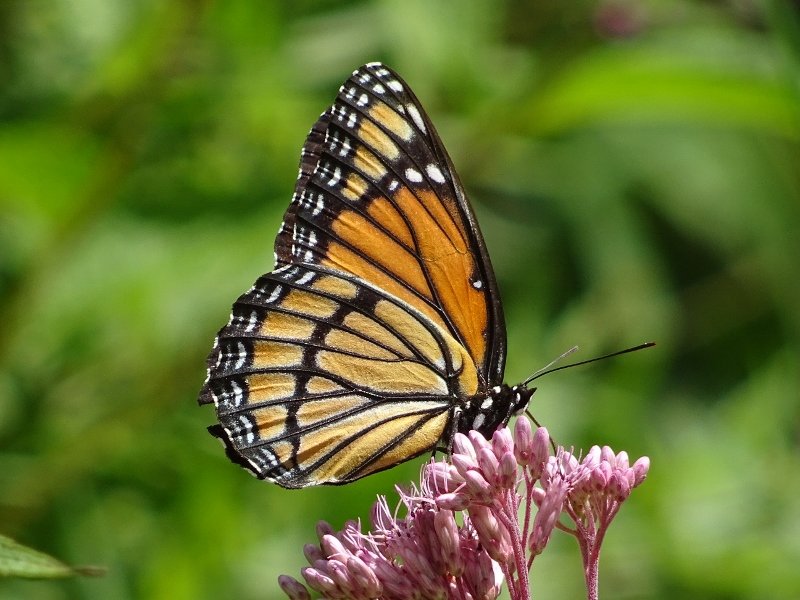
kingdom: Animalia
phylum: Arthropoda
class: Insecta
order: Lepidoptera
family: Nymphalidae
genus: Limenitis
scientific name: Limenitis archippus
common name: Viceroy
